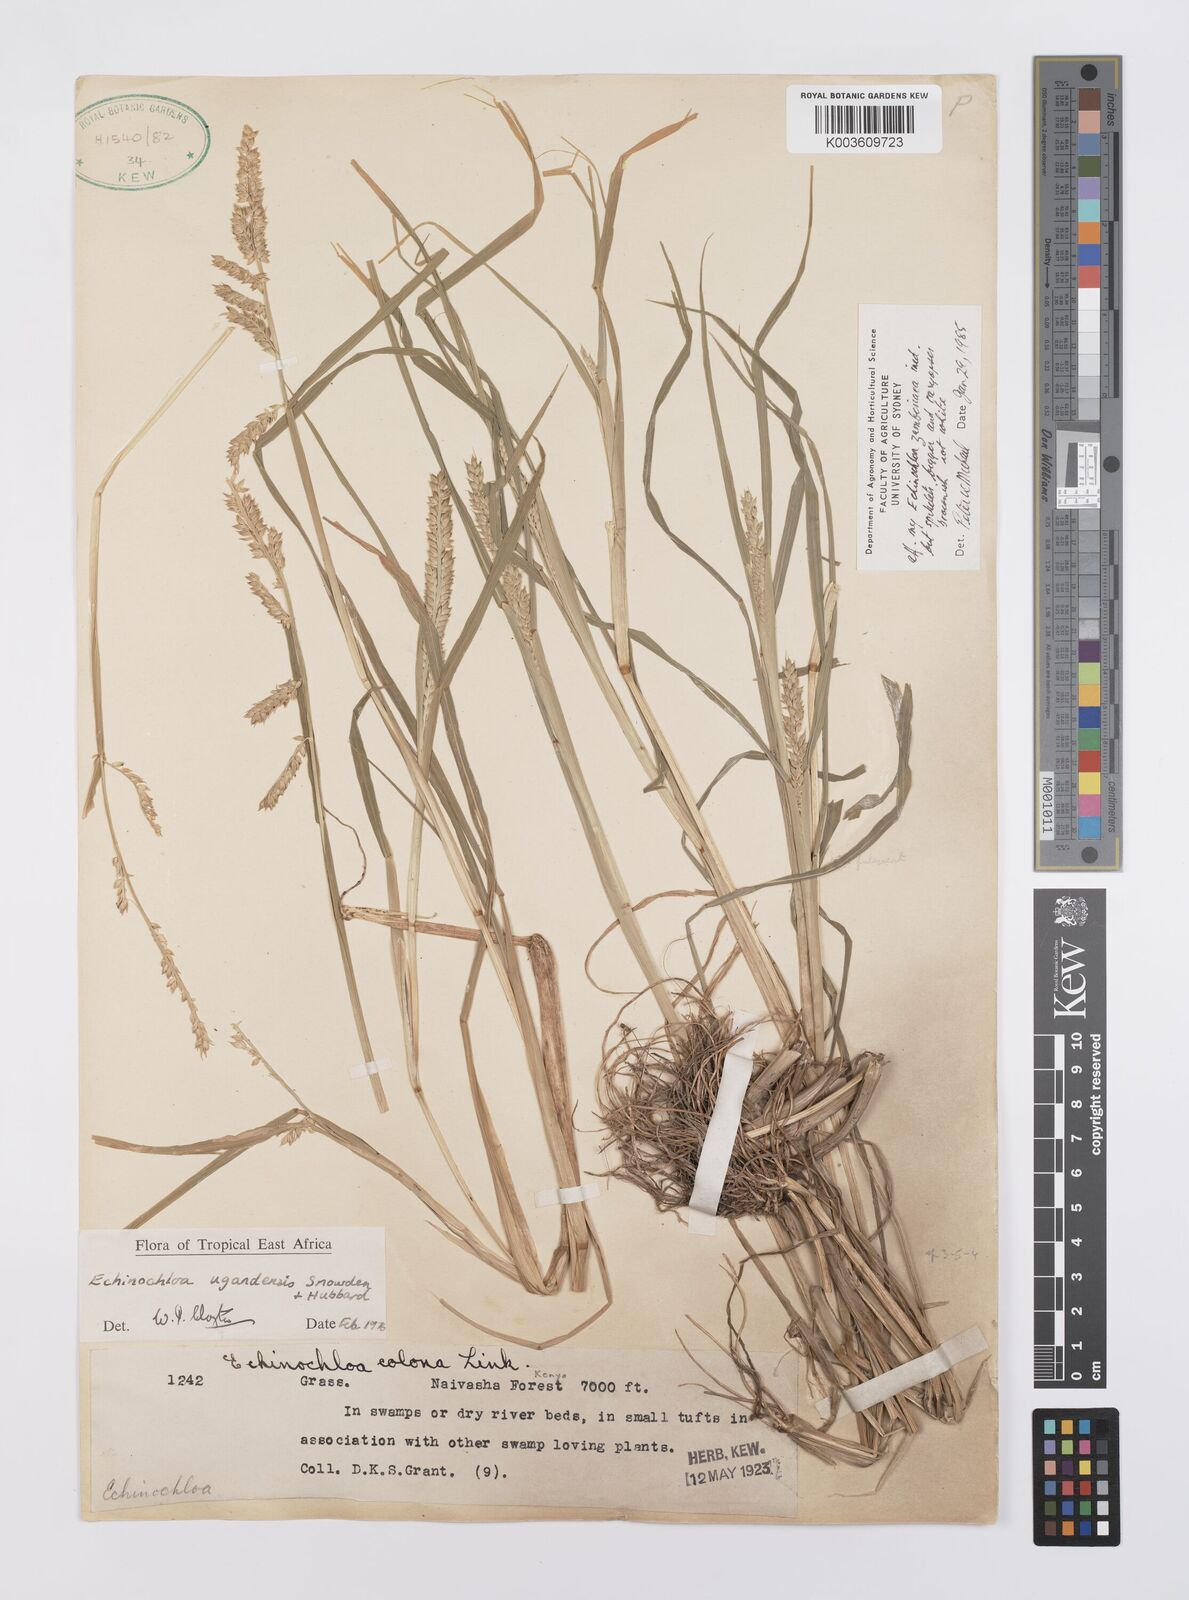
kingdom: Plantae
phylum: Tracheophyta
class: Liliopsida
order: Poales
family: Poaceae
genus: Echinochloa
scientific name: Echinochloa crus-galli
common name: Cockspur
